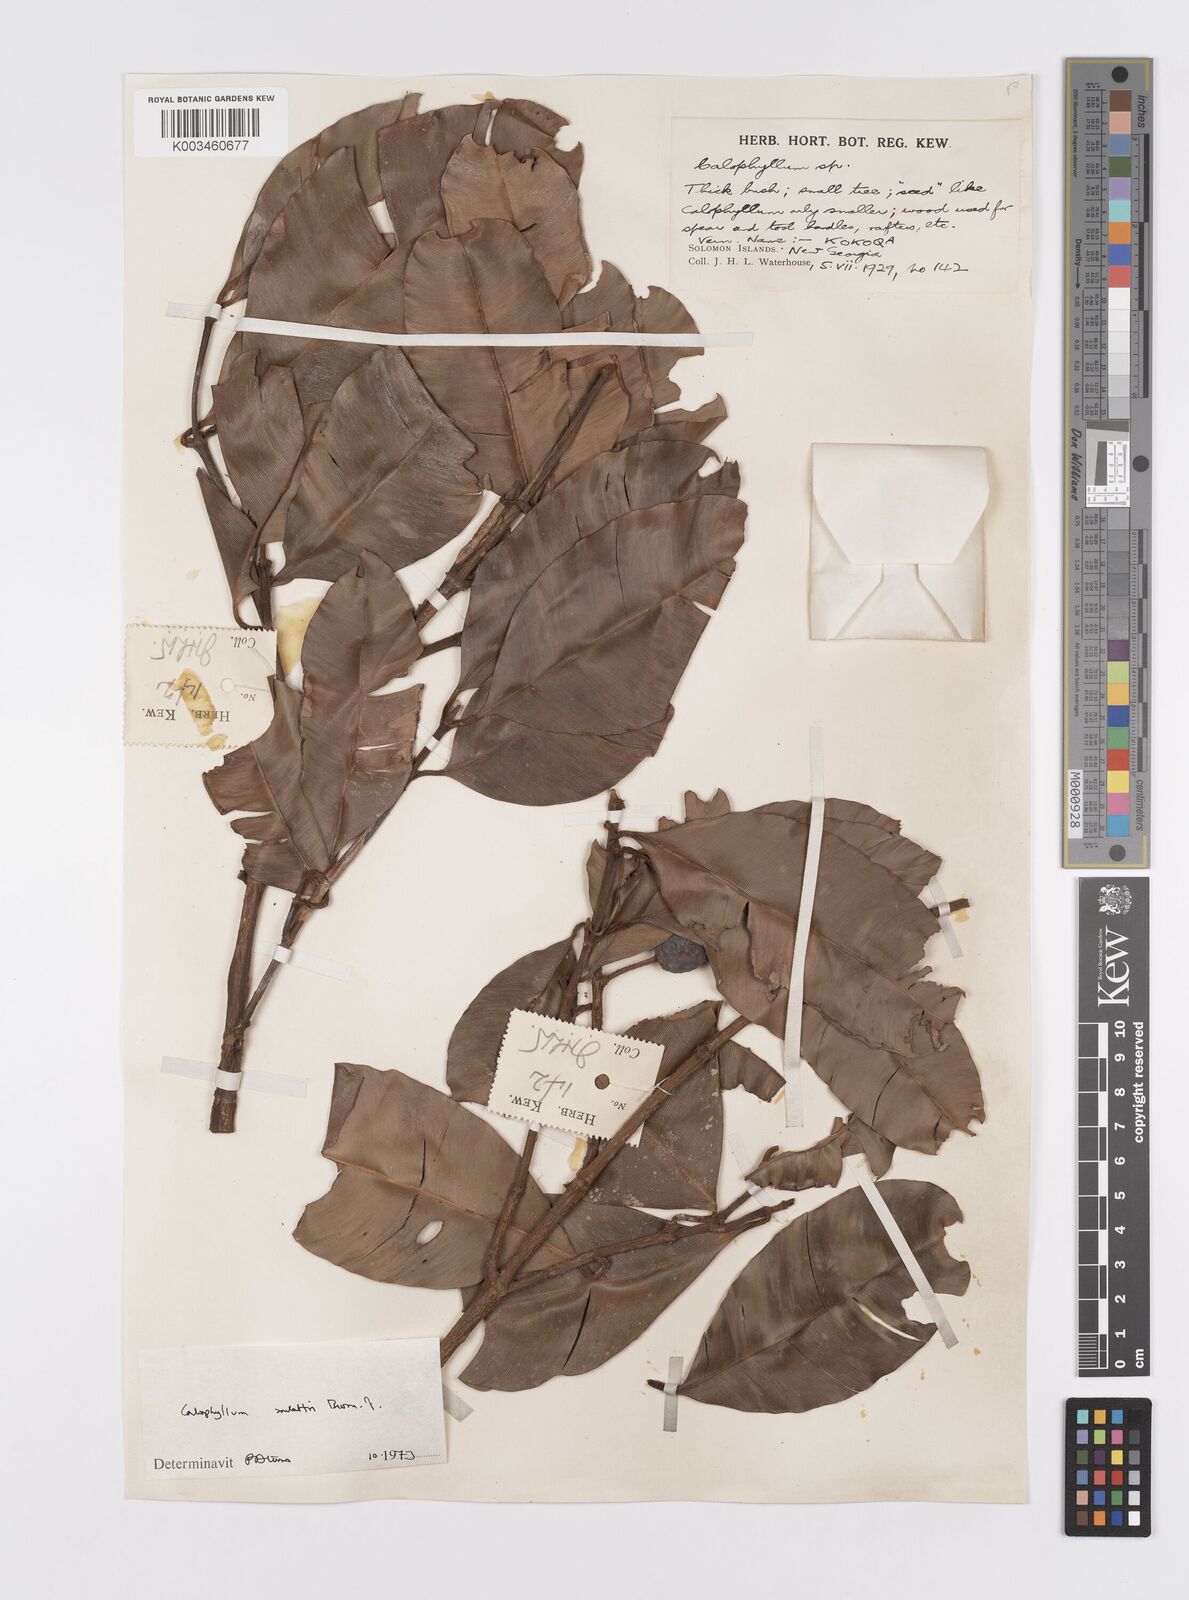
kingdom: Plantae
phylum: Tracheophyta
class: Magnoliopsida
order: Malpighiales
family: Calophyllaceae
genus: Calophyllum
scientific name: Calophyllum soulattri
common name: Bitangoor boonot
